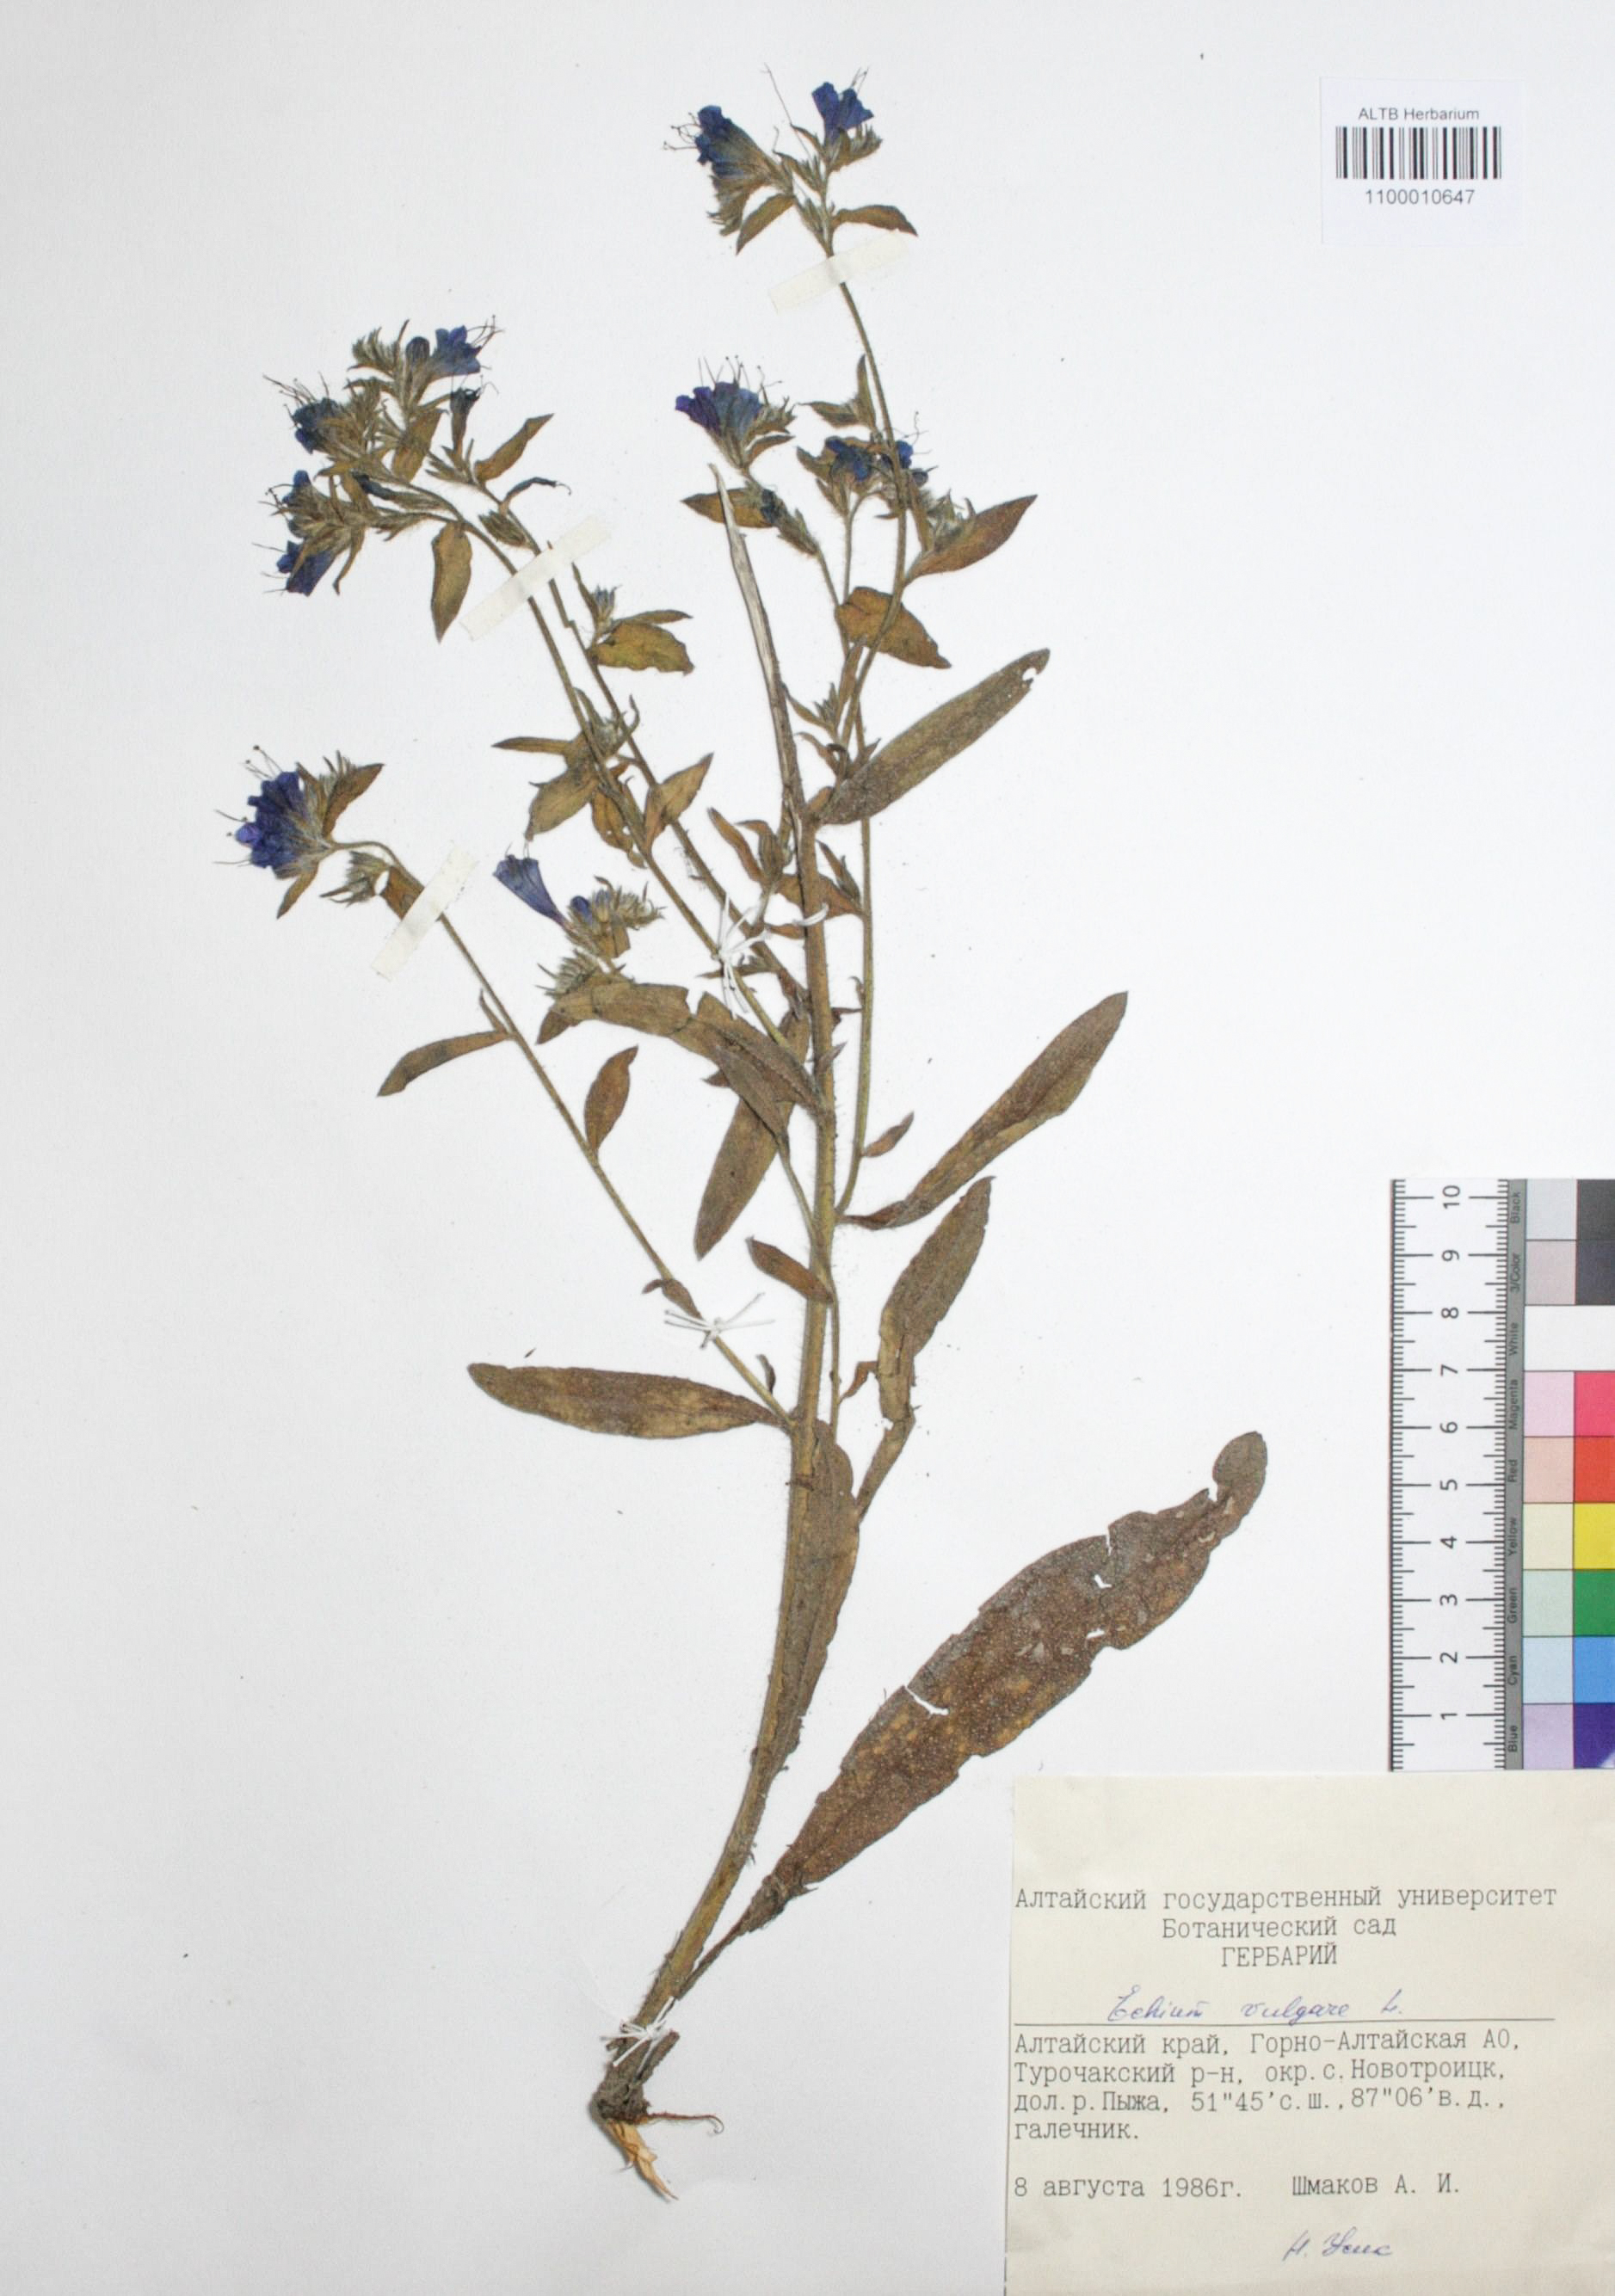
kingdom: Plantae
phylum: Tracheophyta
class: Magnoliopsida
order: Boraginales
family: Boraginaceae
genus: Echium
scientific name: Echium vulgare
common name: Common viper's bugloss
